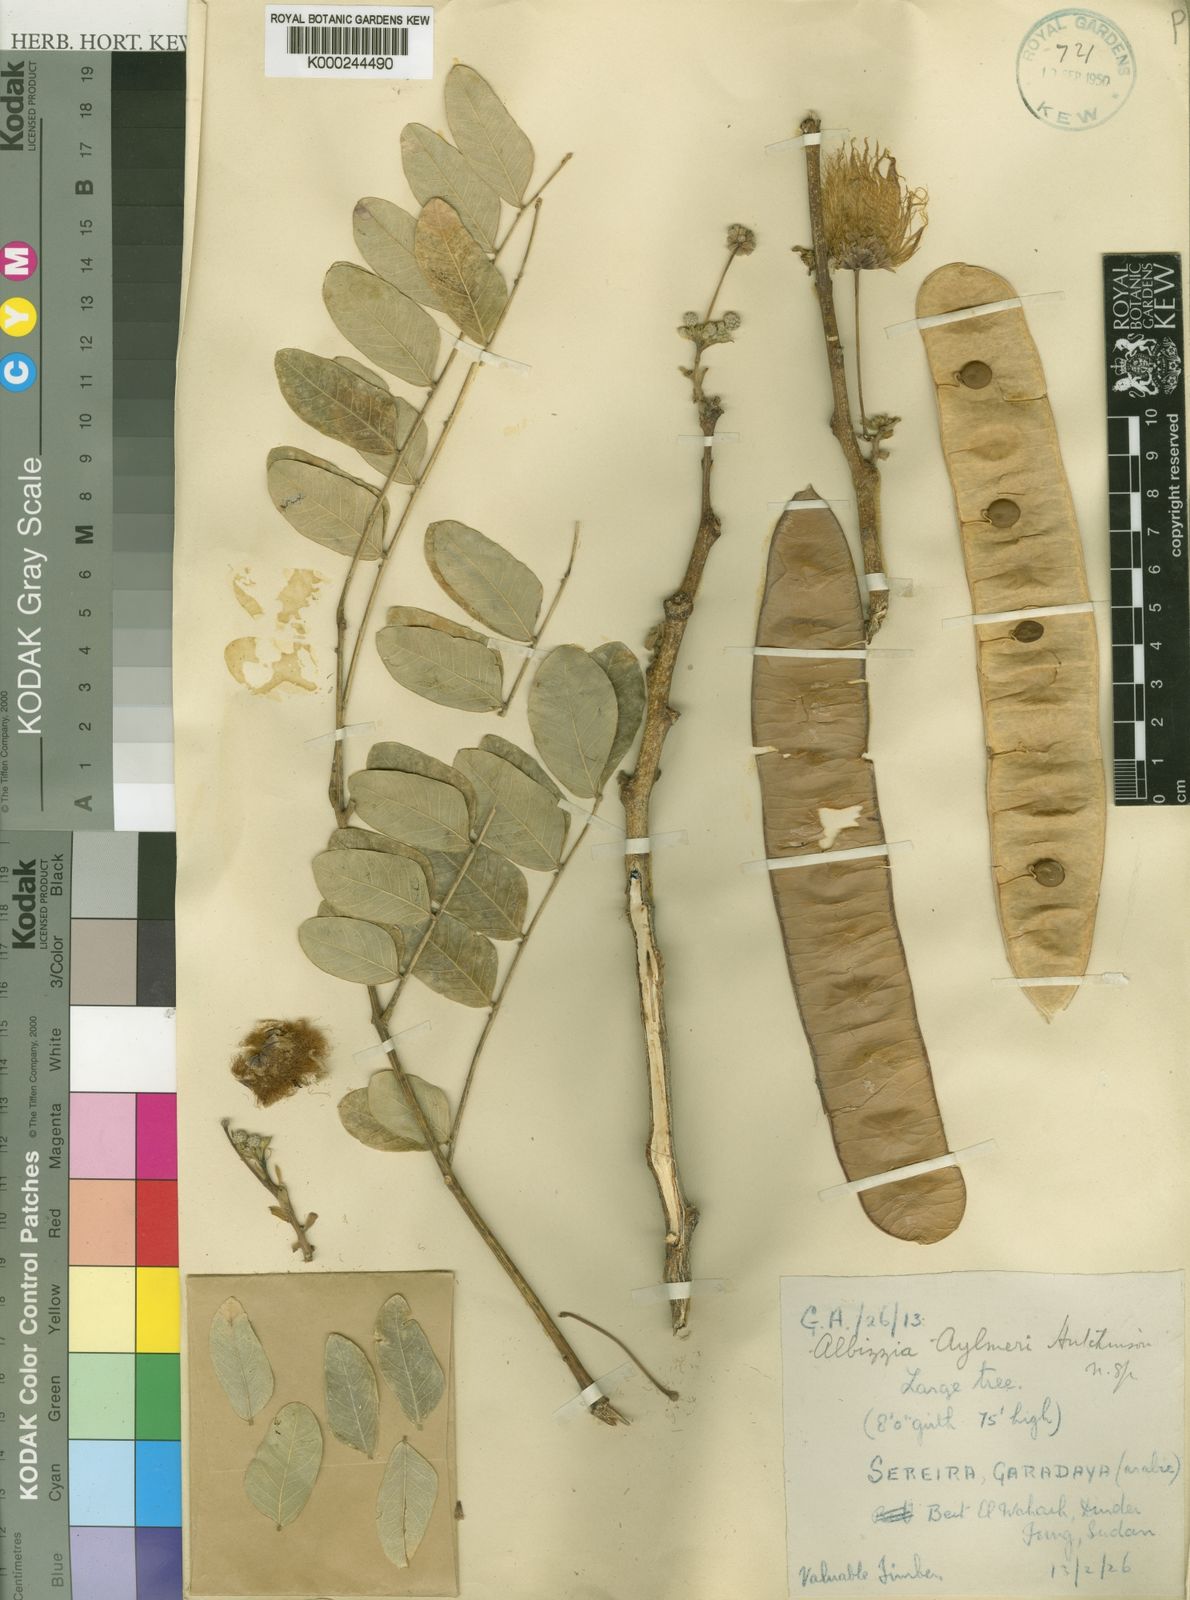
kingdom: Plantae
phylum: Tracheophyta
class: Magnoliopsida
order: Fabales
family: Fabaceae
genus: Albizia
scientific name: Albizia
